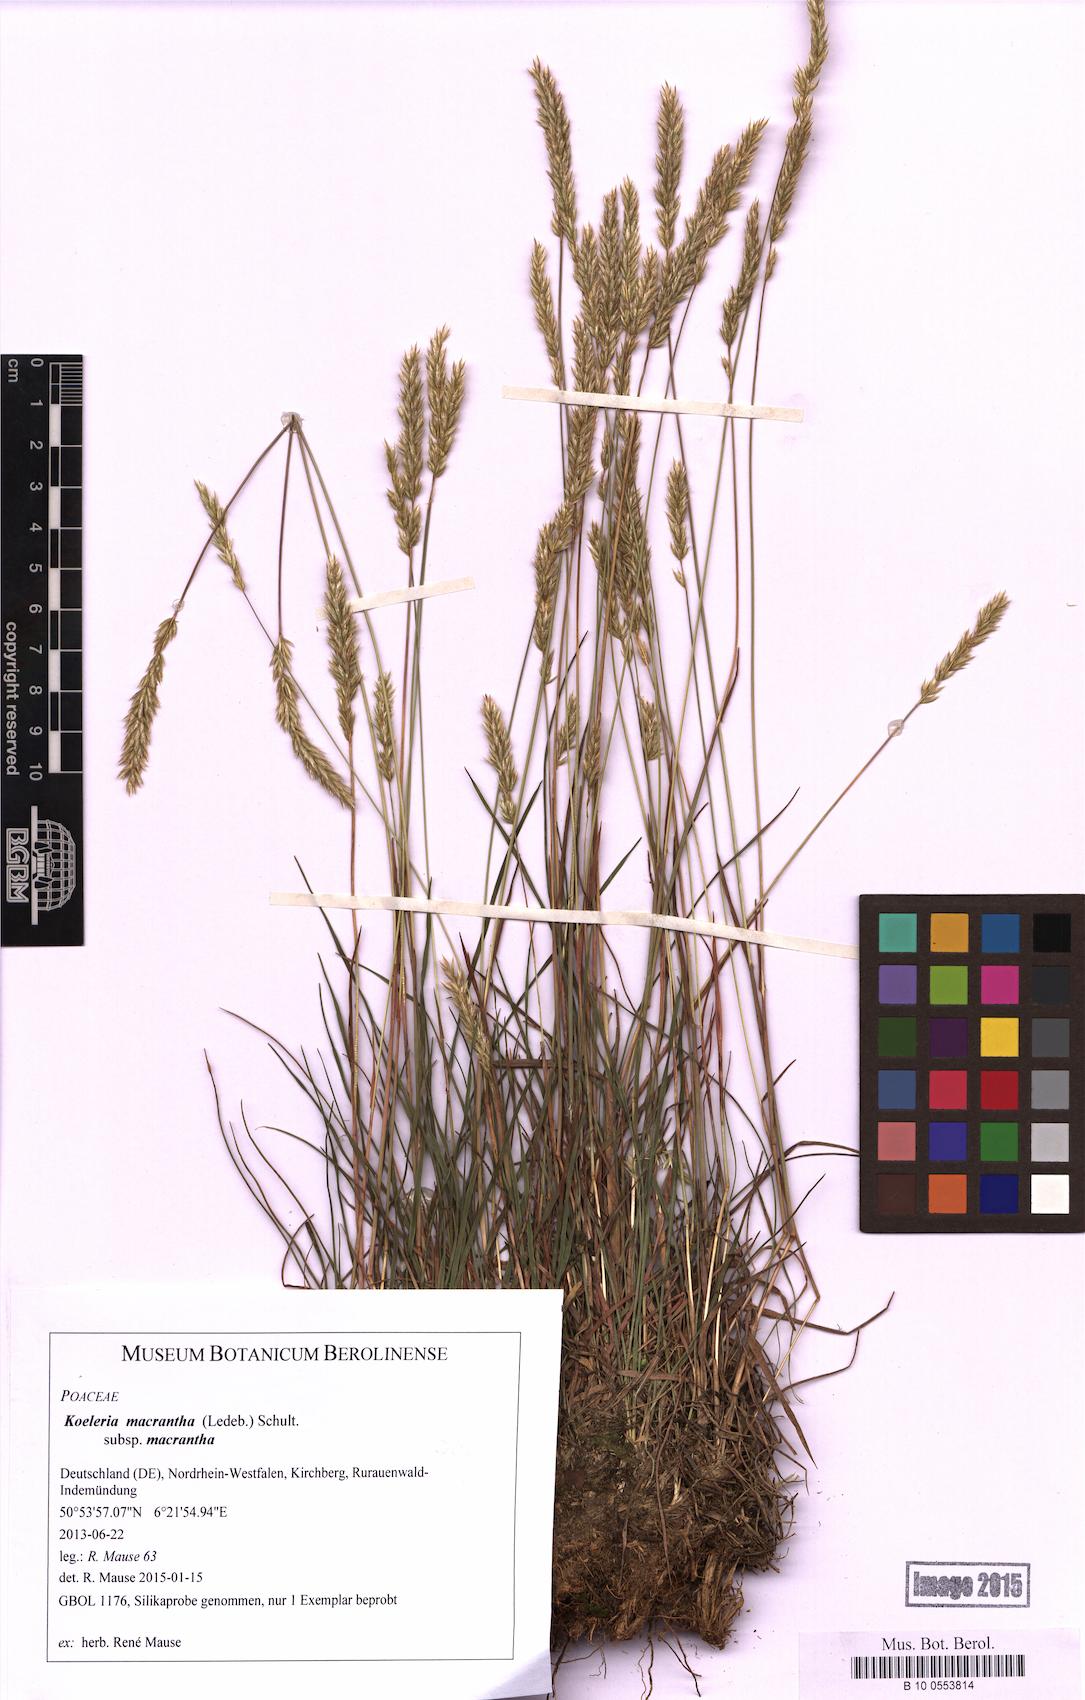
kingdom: Plantae
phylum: Tracheophyta
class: Liliopsida
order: Poales
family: Poaceae
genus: Koeleria
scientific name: Koeleria macrantha
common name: Crested hair-grass
